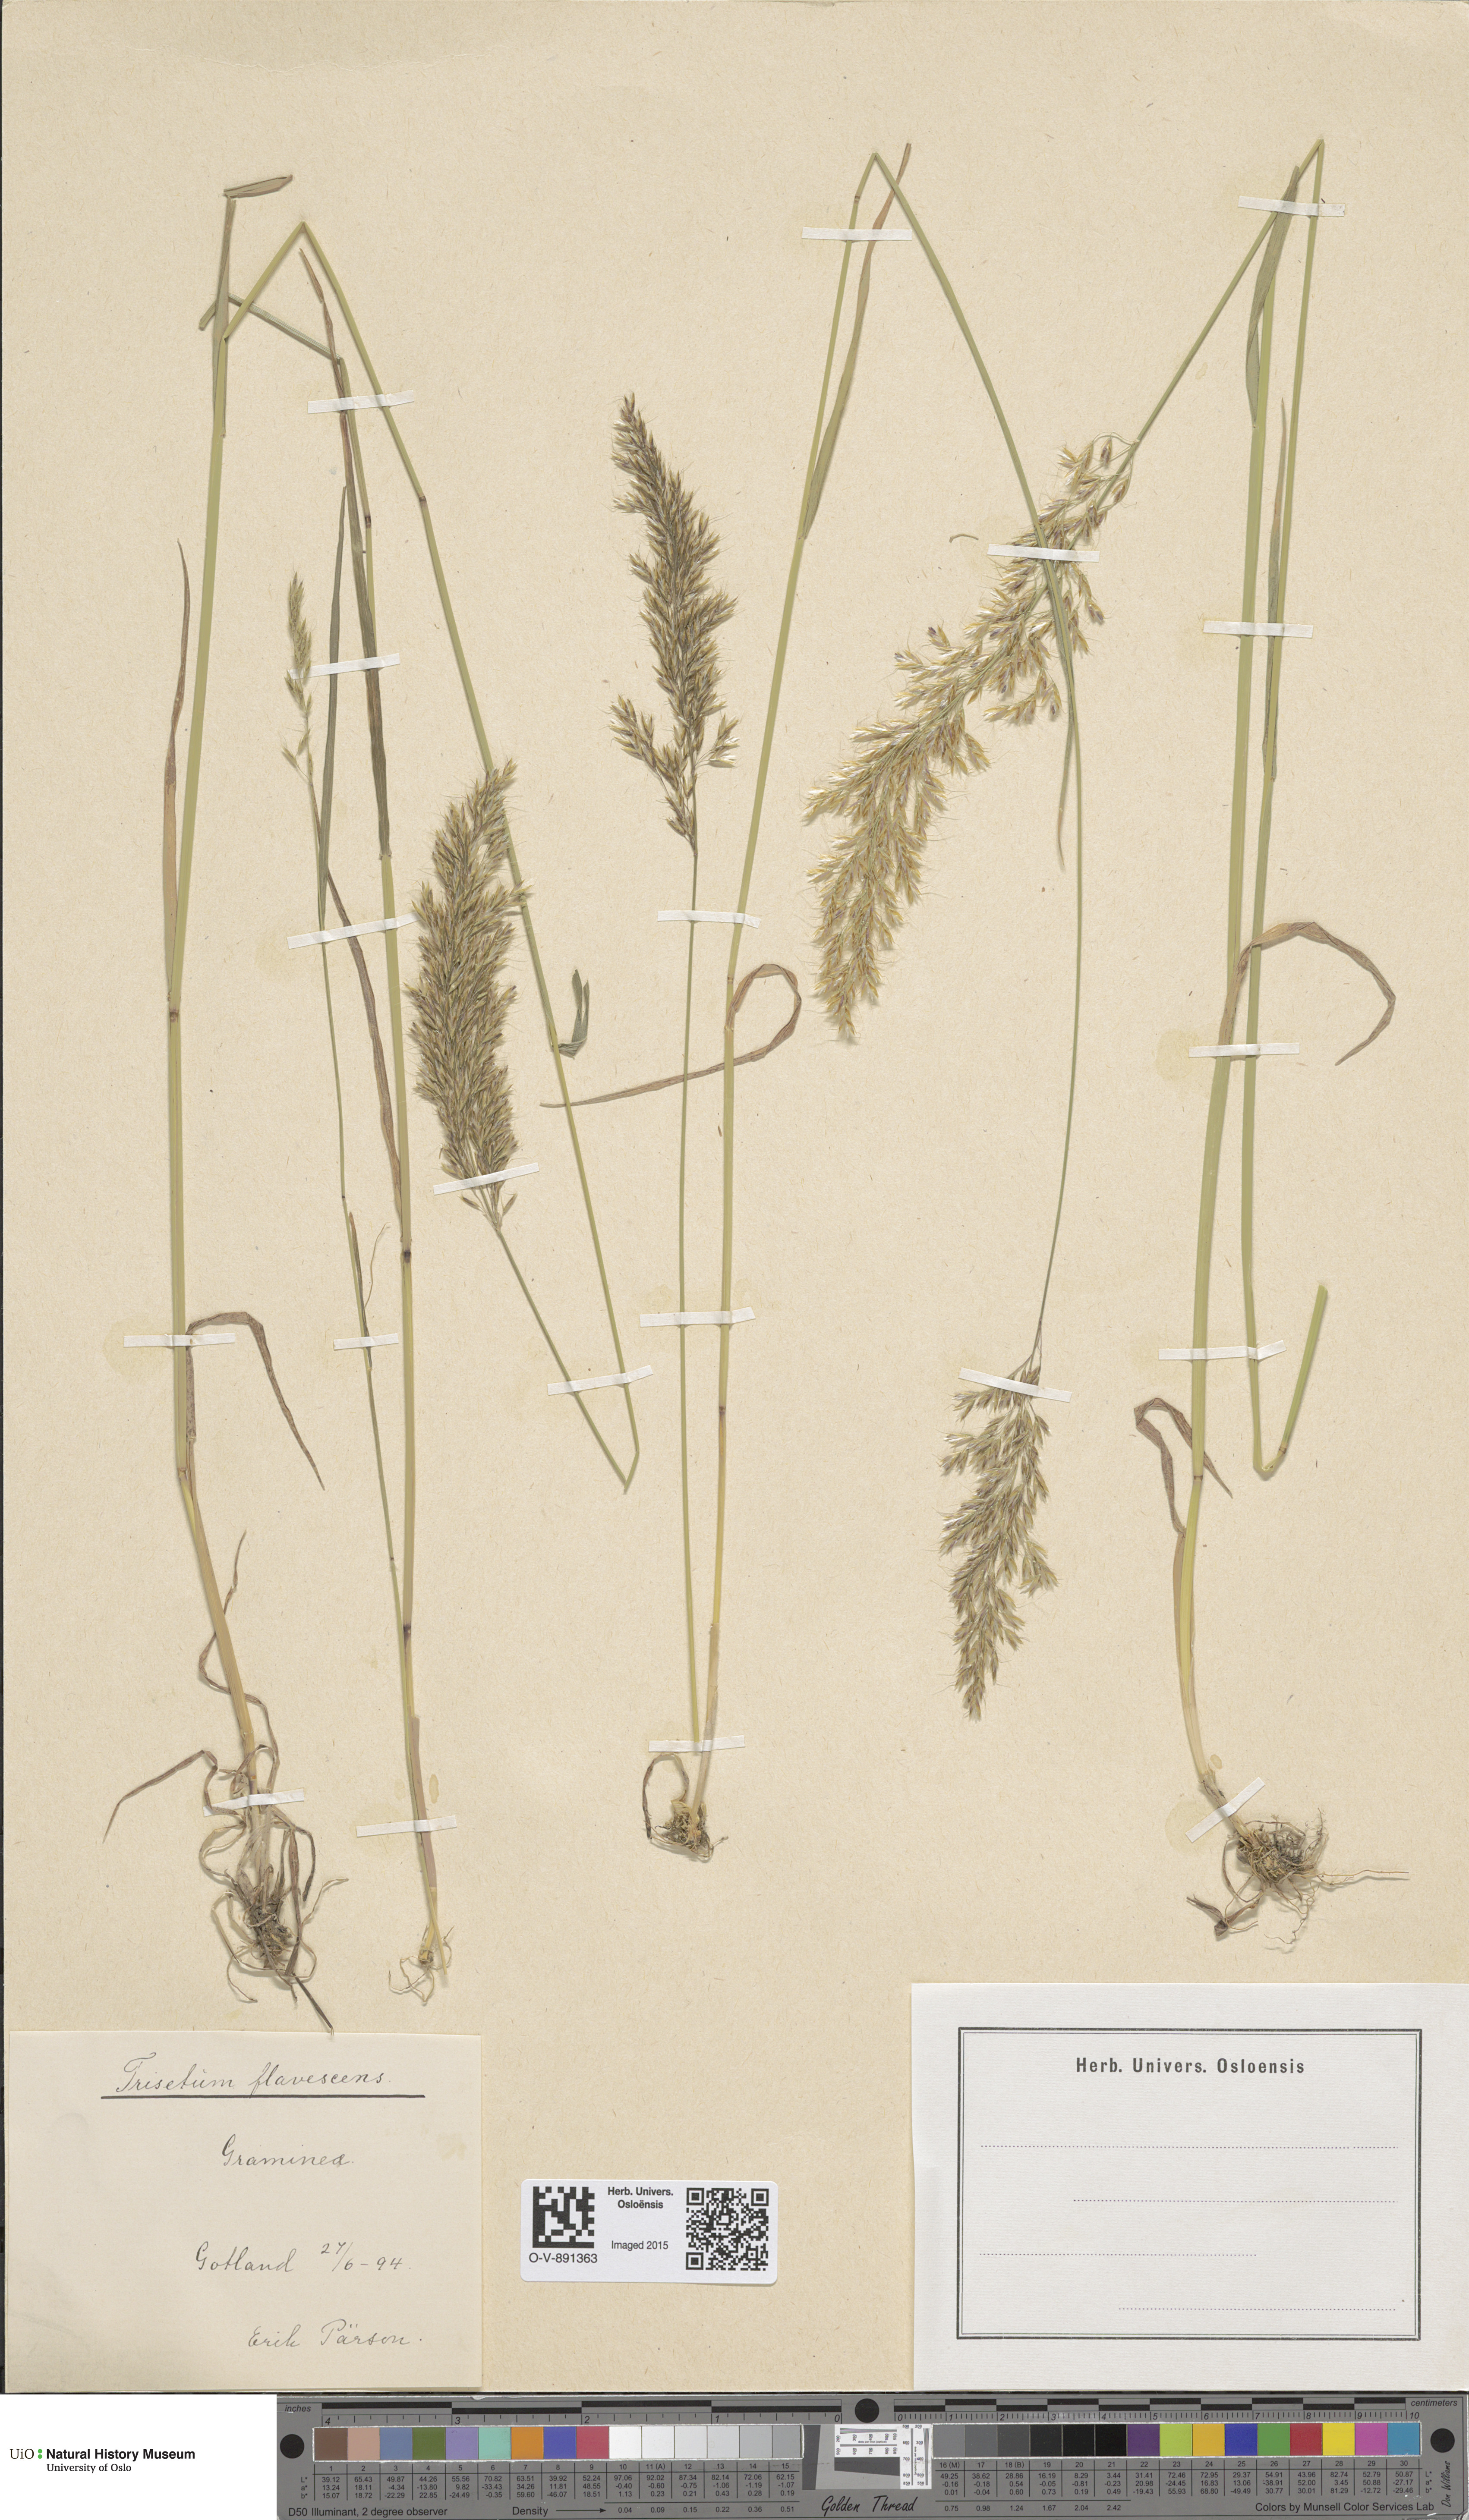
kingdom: Plantae
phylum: Tracheophyta
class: Liliopsida
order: Poales
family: Poaceae
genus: Trisetum
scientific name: Trisetum flavescens
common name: Yellow oat-grass
